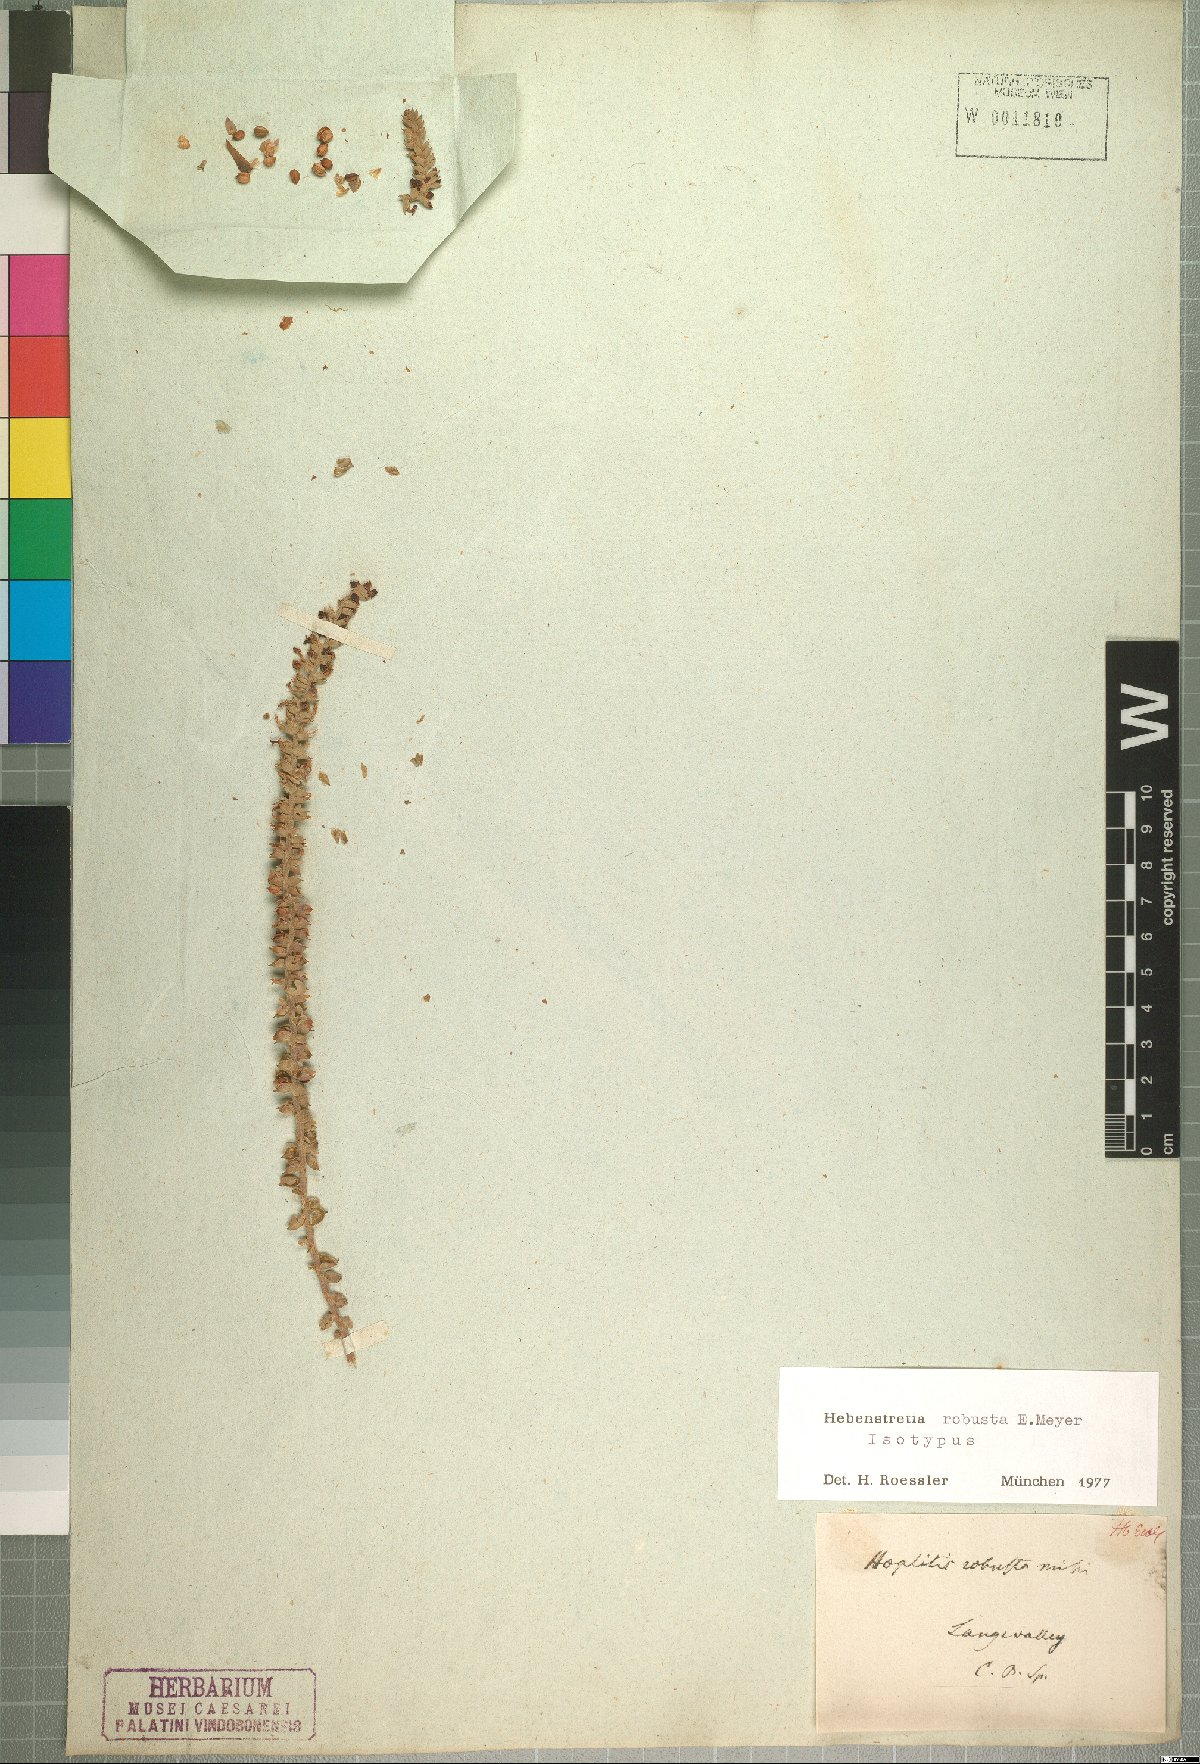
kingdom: Plantae
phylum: Tracheophyta
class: Magnoliopsida
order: Lamiales
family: Scrophulariaceae
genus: Hebenstretia
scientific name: Hebenstretia robusta
